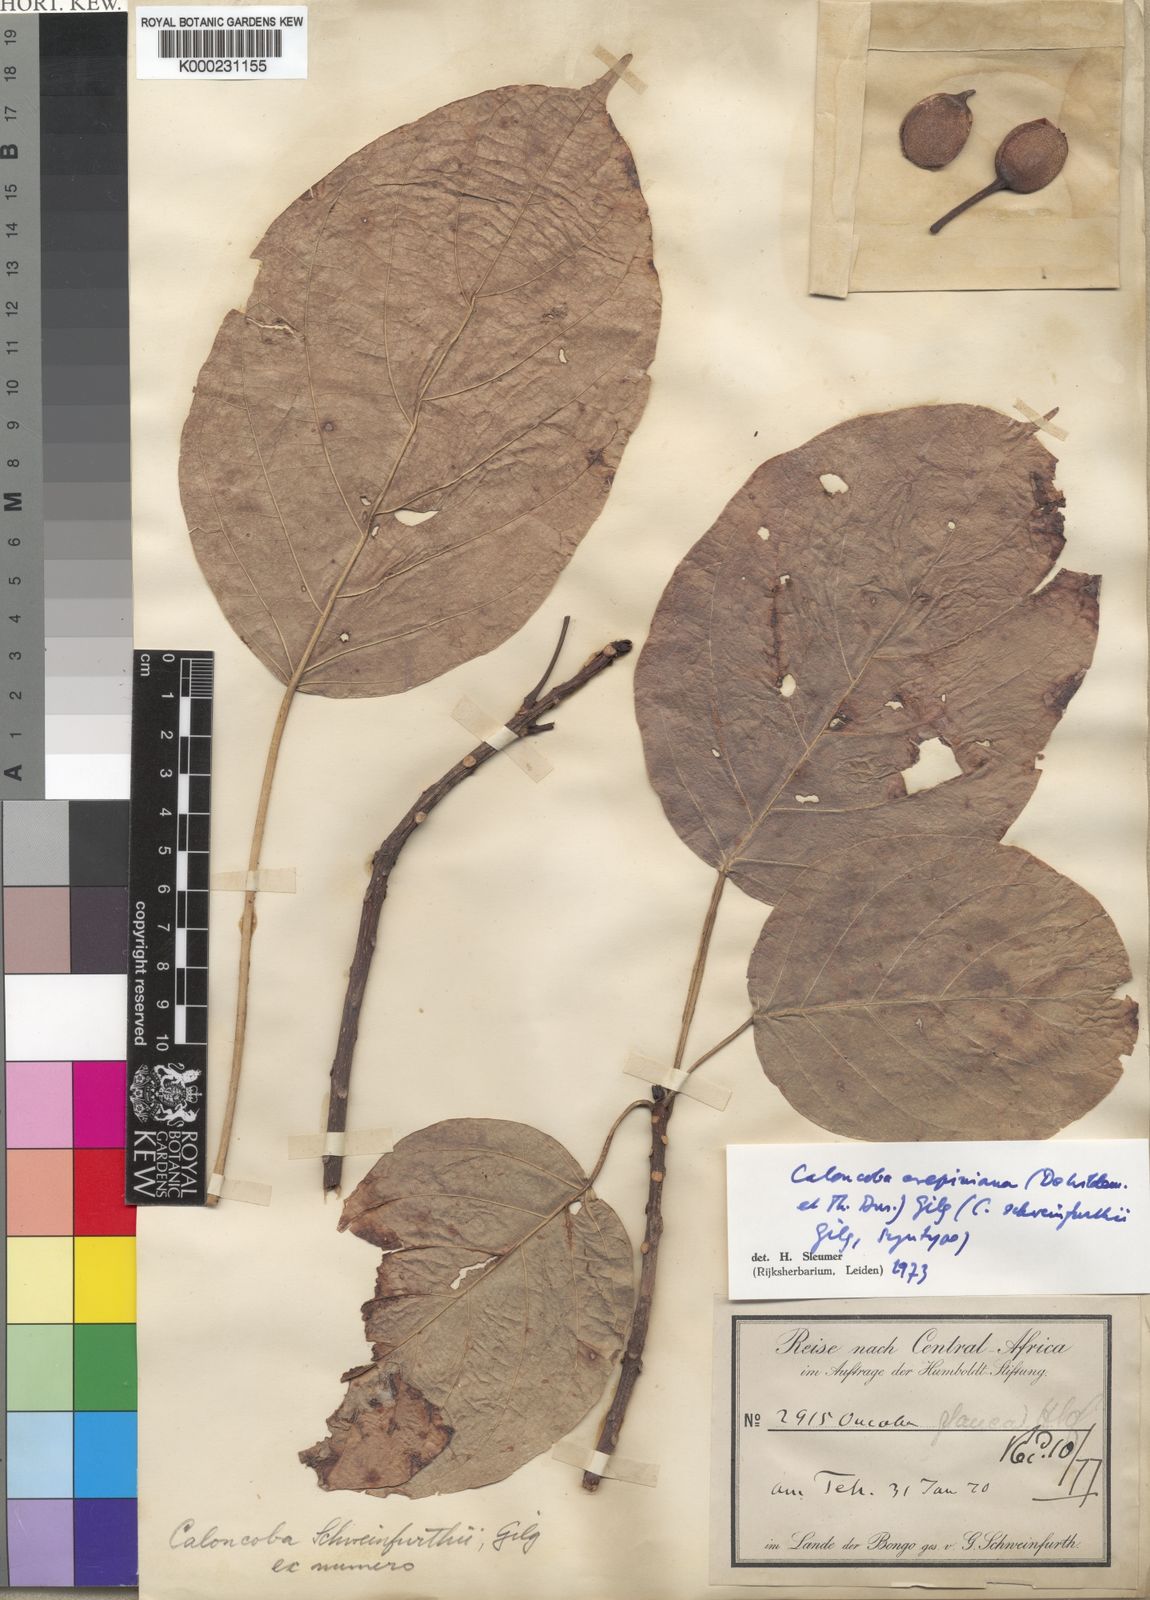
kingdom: Plantae
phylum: Tracheophyta
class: Magnoliopsida
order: Malpighiales
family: Achariaceae
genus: Caloncoba
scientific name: Caloncoba crepiniana
